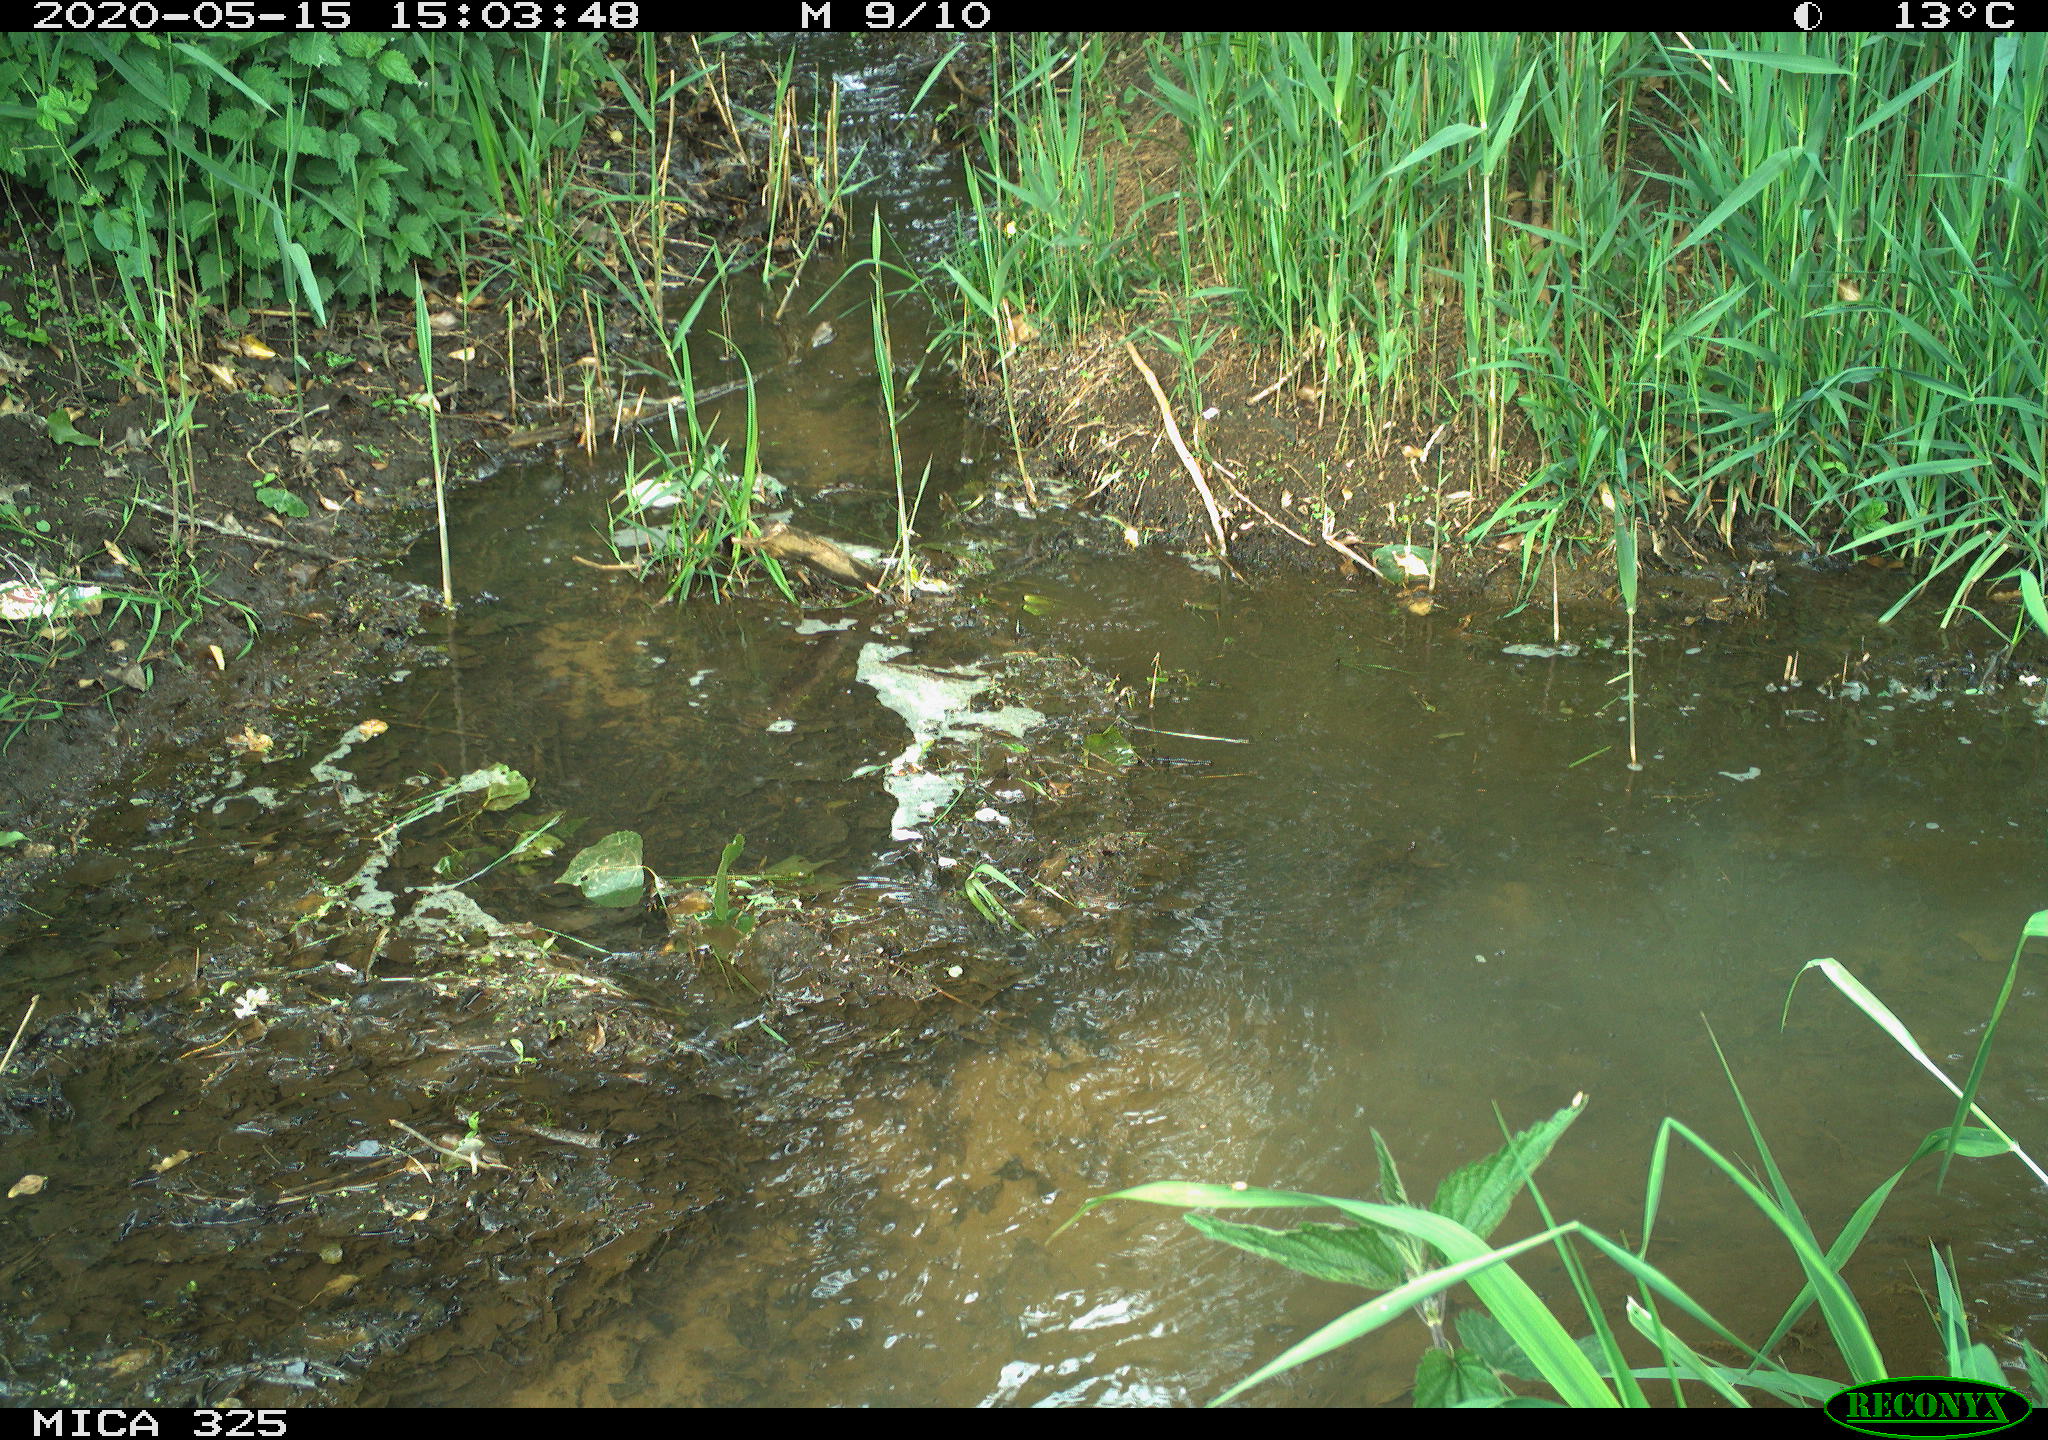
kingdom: Animalia
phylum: Chordata
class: Aves
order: Anseriformes
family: Anatidae
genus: Anas
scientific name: Anas platyrhynchos
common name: Mallard
